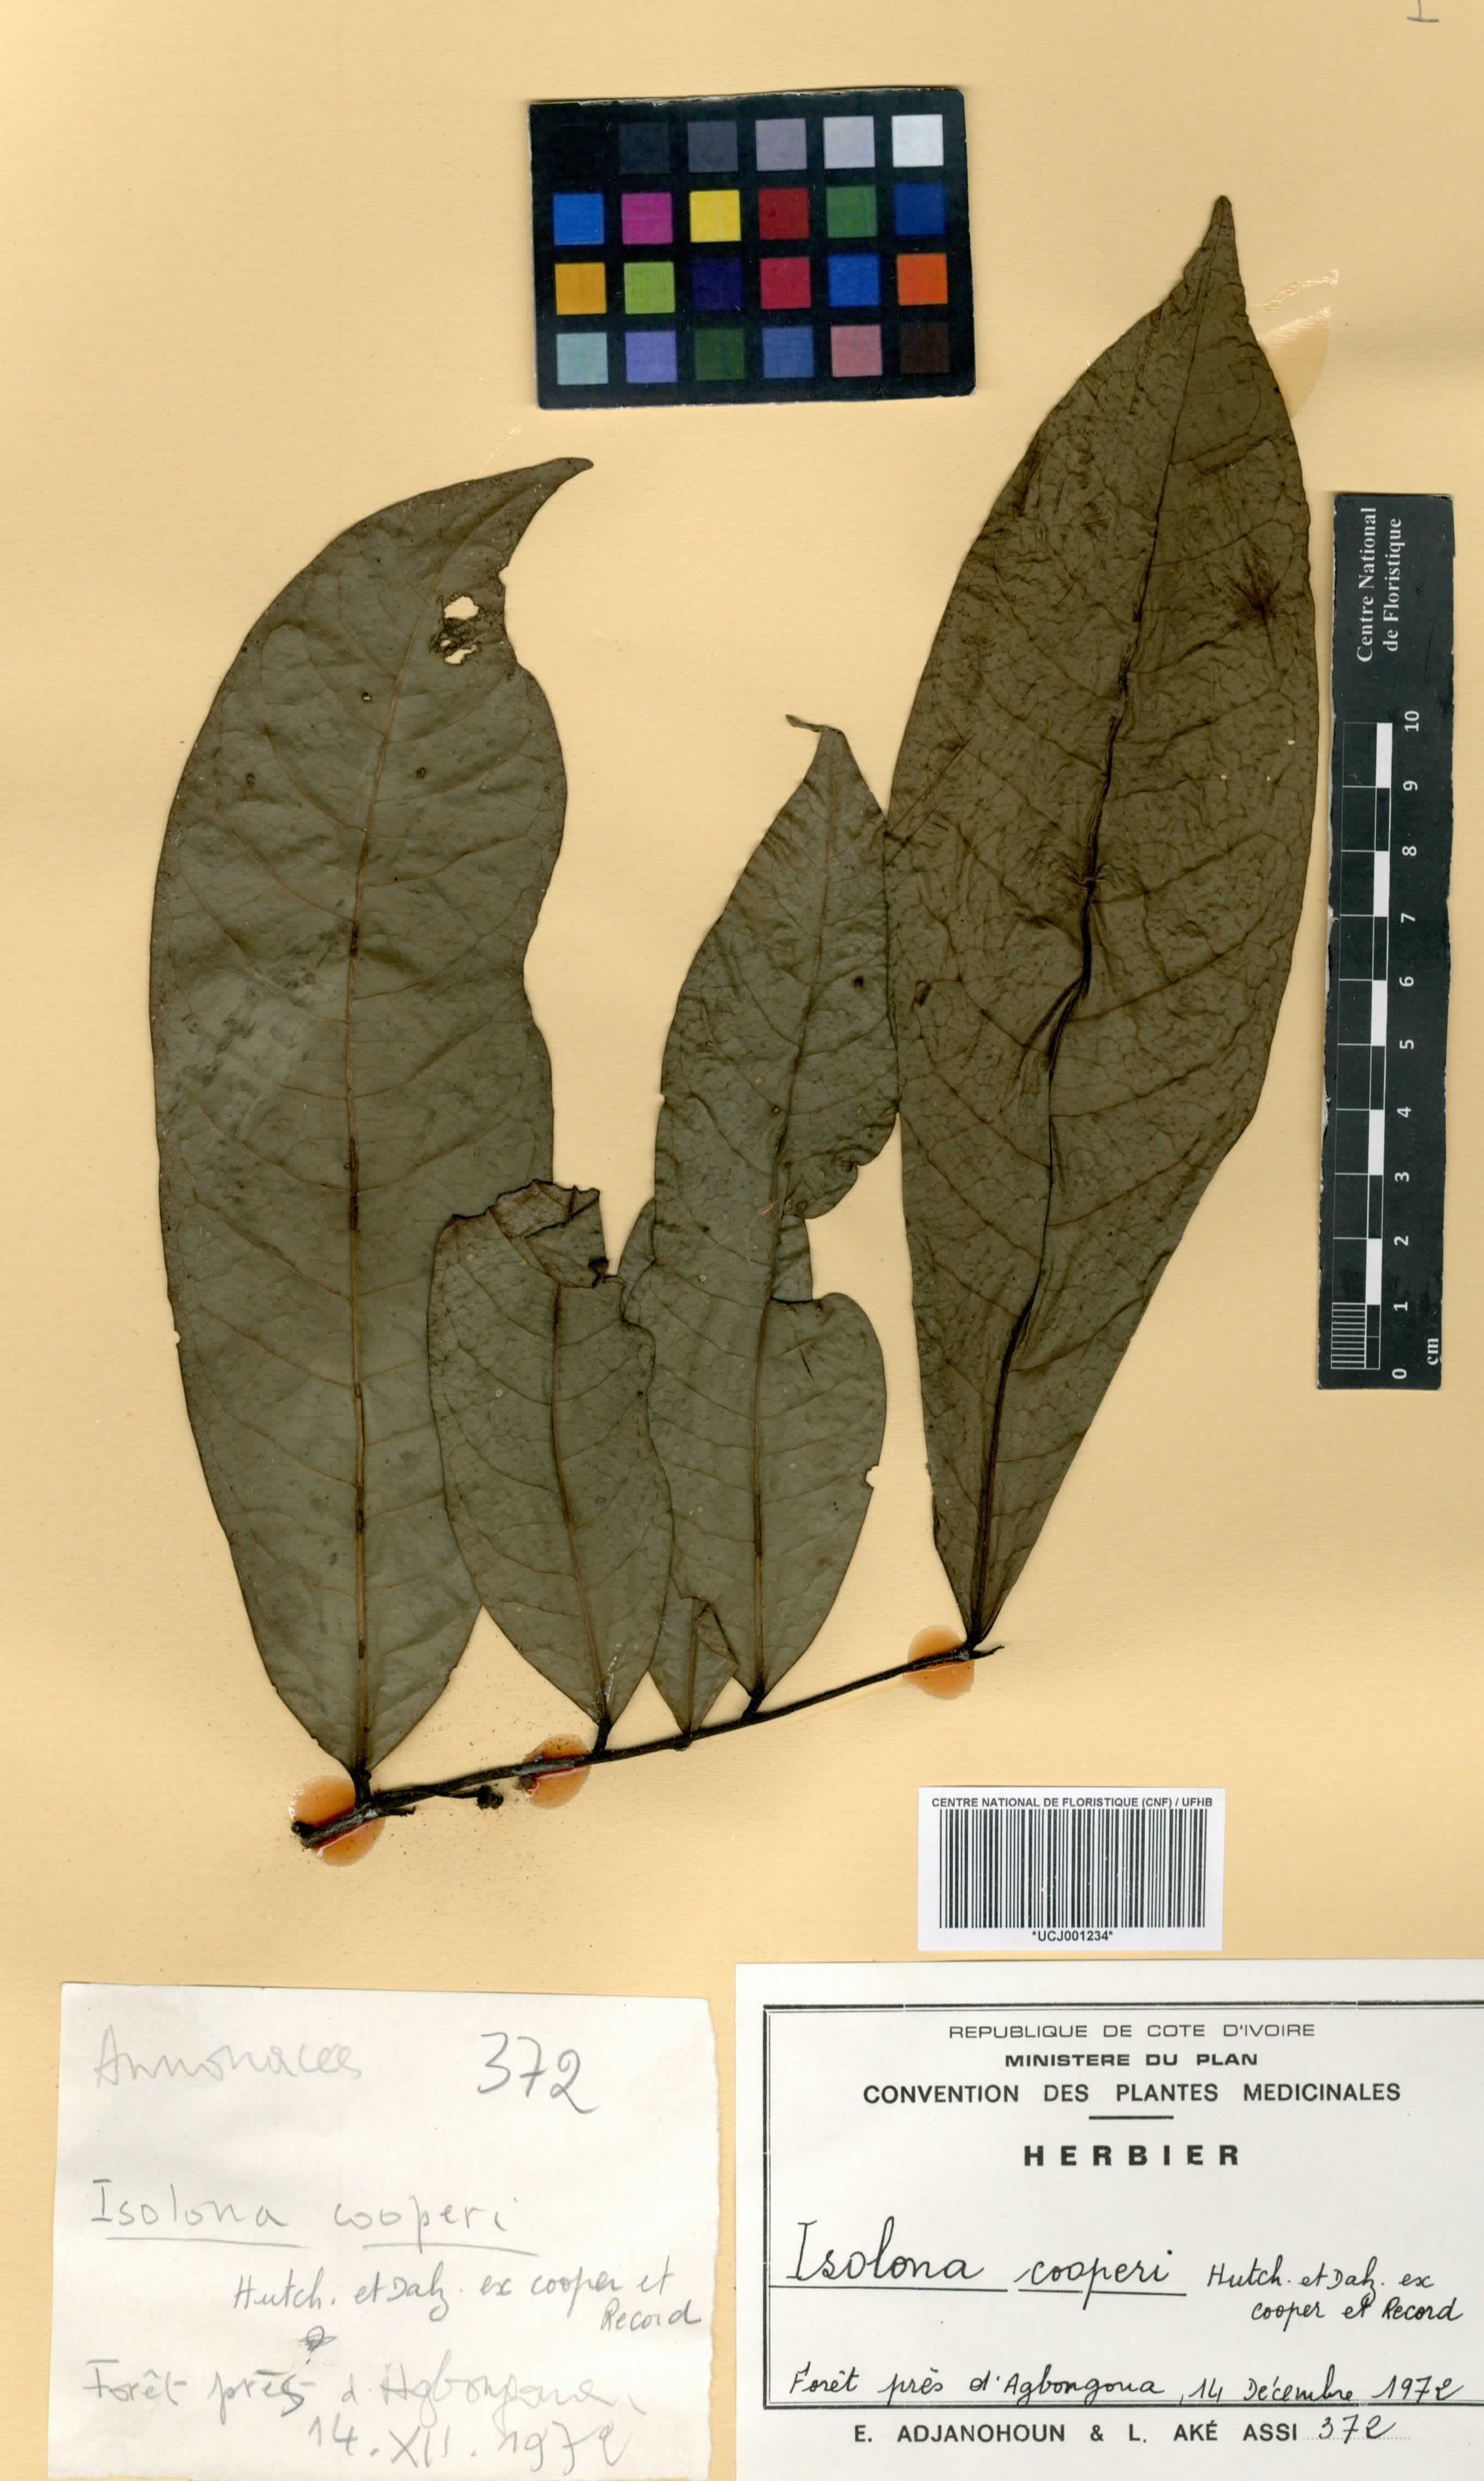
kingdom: Plantae
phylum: Tracheophyta
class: Magnoliopsida
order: Magnoliales
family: Annonaceae
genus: Isolona
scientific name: Isolona cooperi
